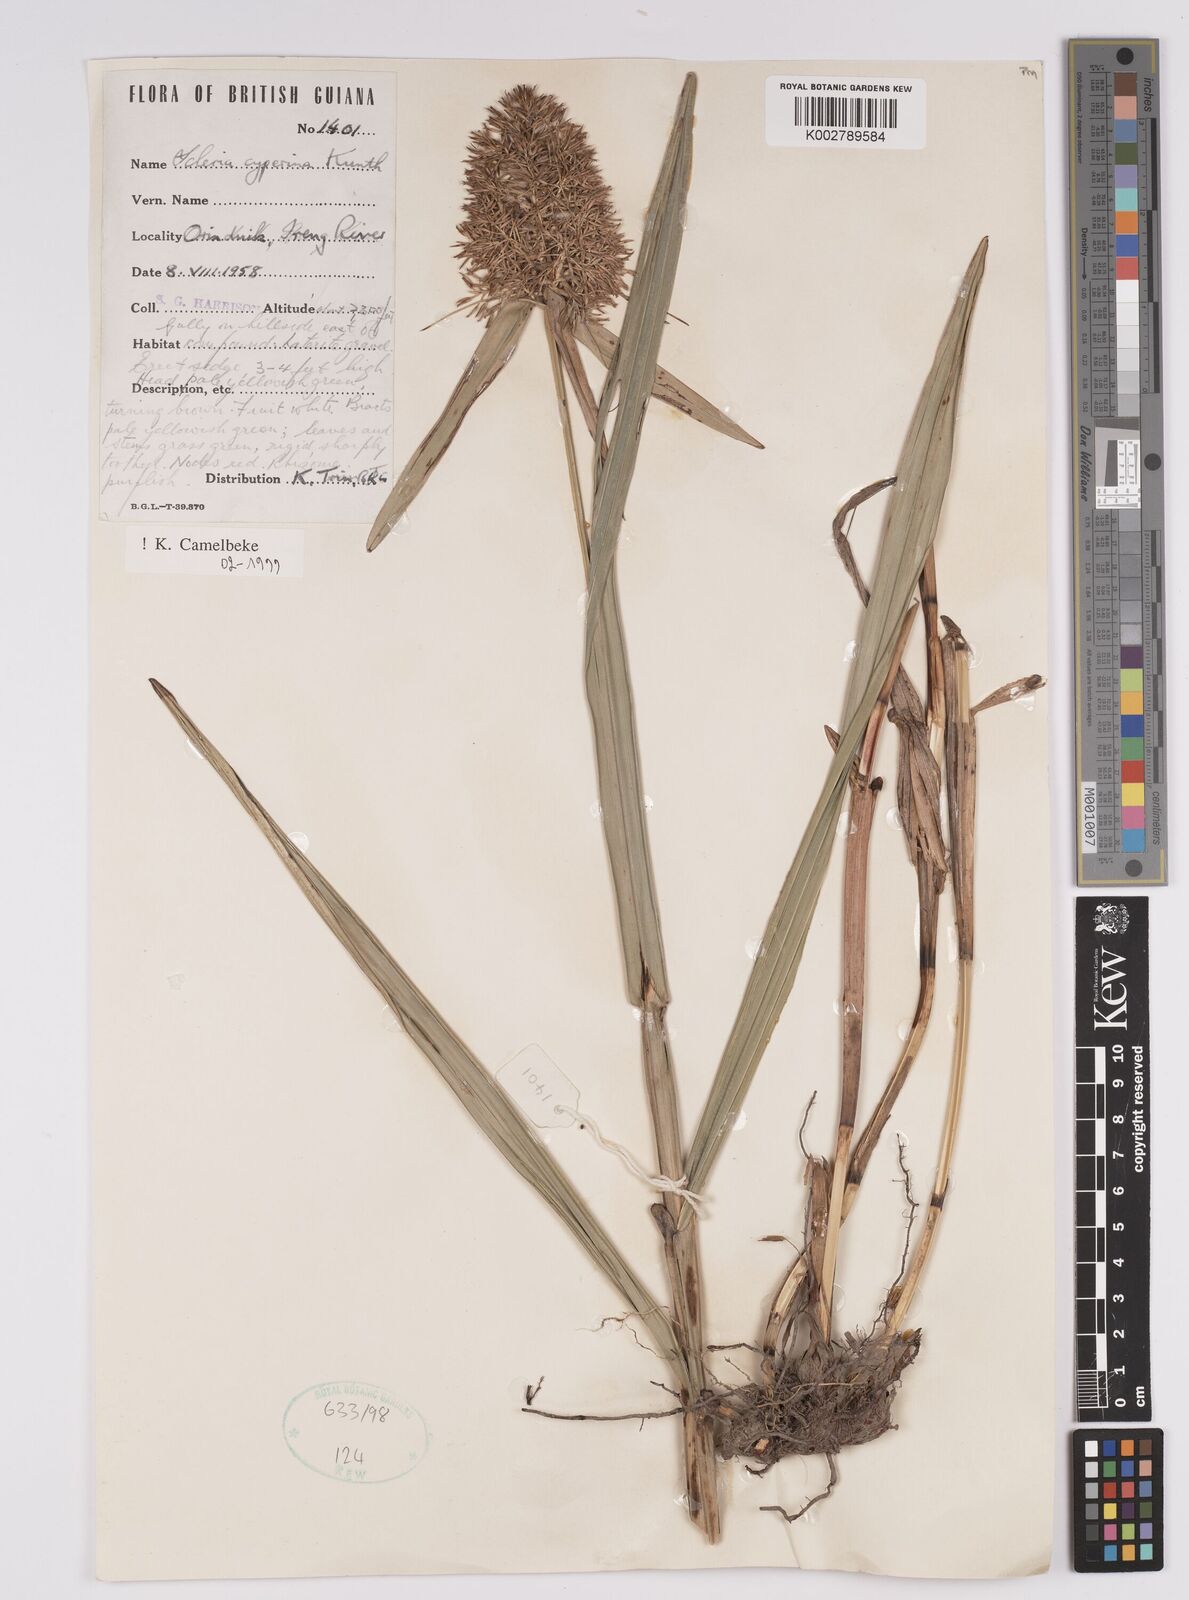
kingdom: Plantae
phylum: Tracheophyta
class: Liliopsida
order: Poales
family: Cyperaceae
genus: Scleria
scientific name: Scleria cyperina
